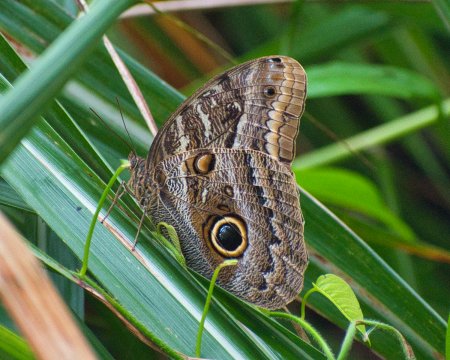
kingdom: Animalia
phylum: Arthropoda
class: Insecta
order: Lepidoptera
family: Nymphalidae
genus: Caligo
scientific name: Caligo illioneus
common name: Dusky Owl-Butterfly
